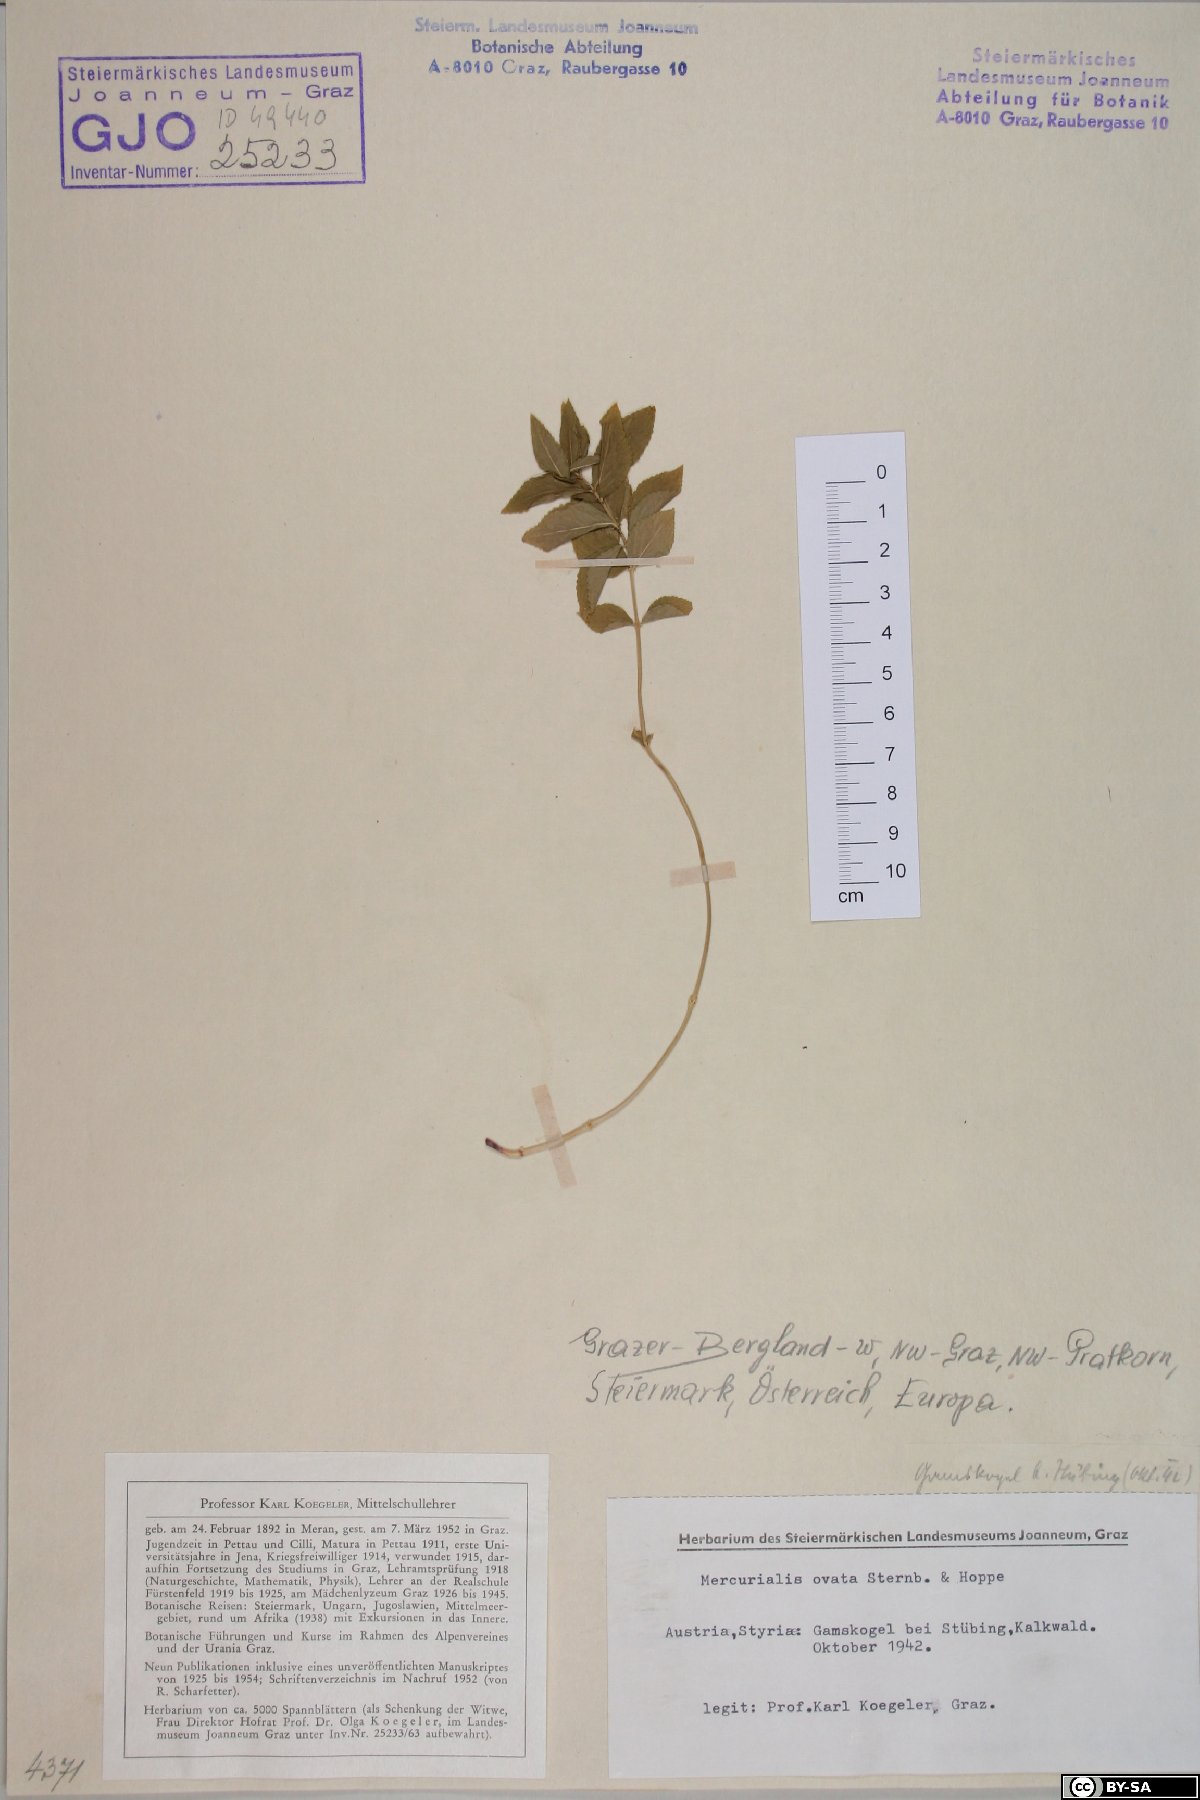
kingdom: Plantae
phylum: Tracheophyta
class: Magnoliopsida
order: Malpighiales
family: Euphorbiaceae
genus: Mercurialis
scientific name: Mercurialis ovata
